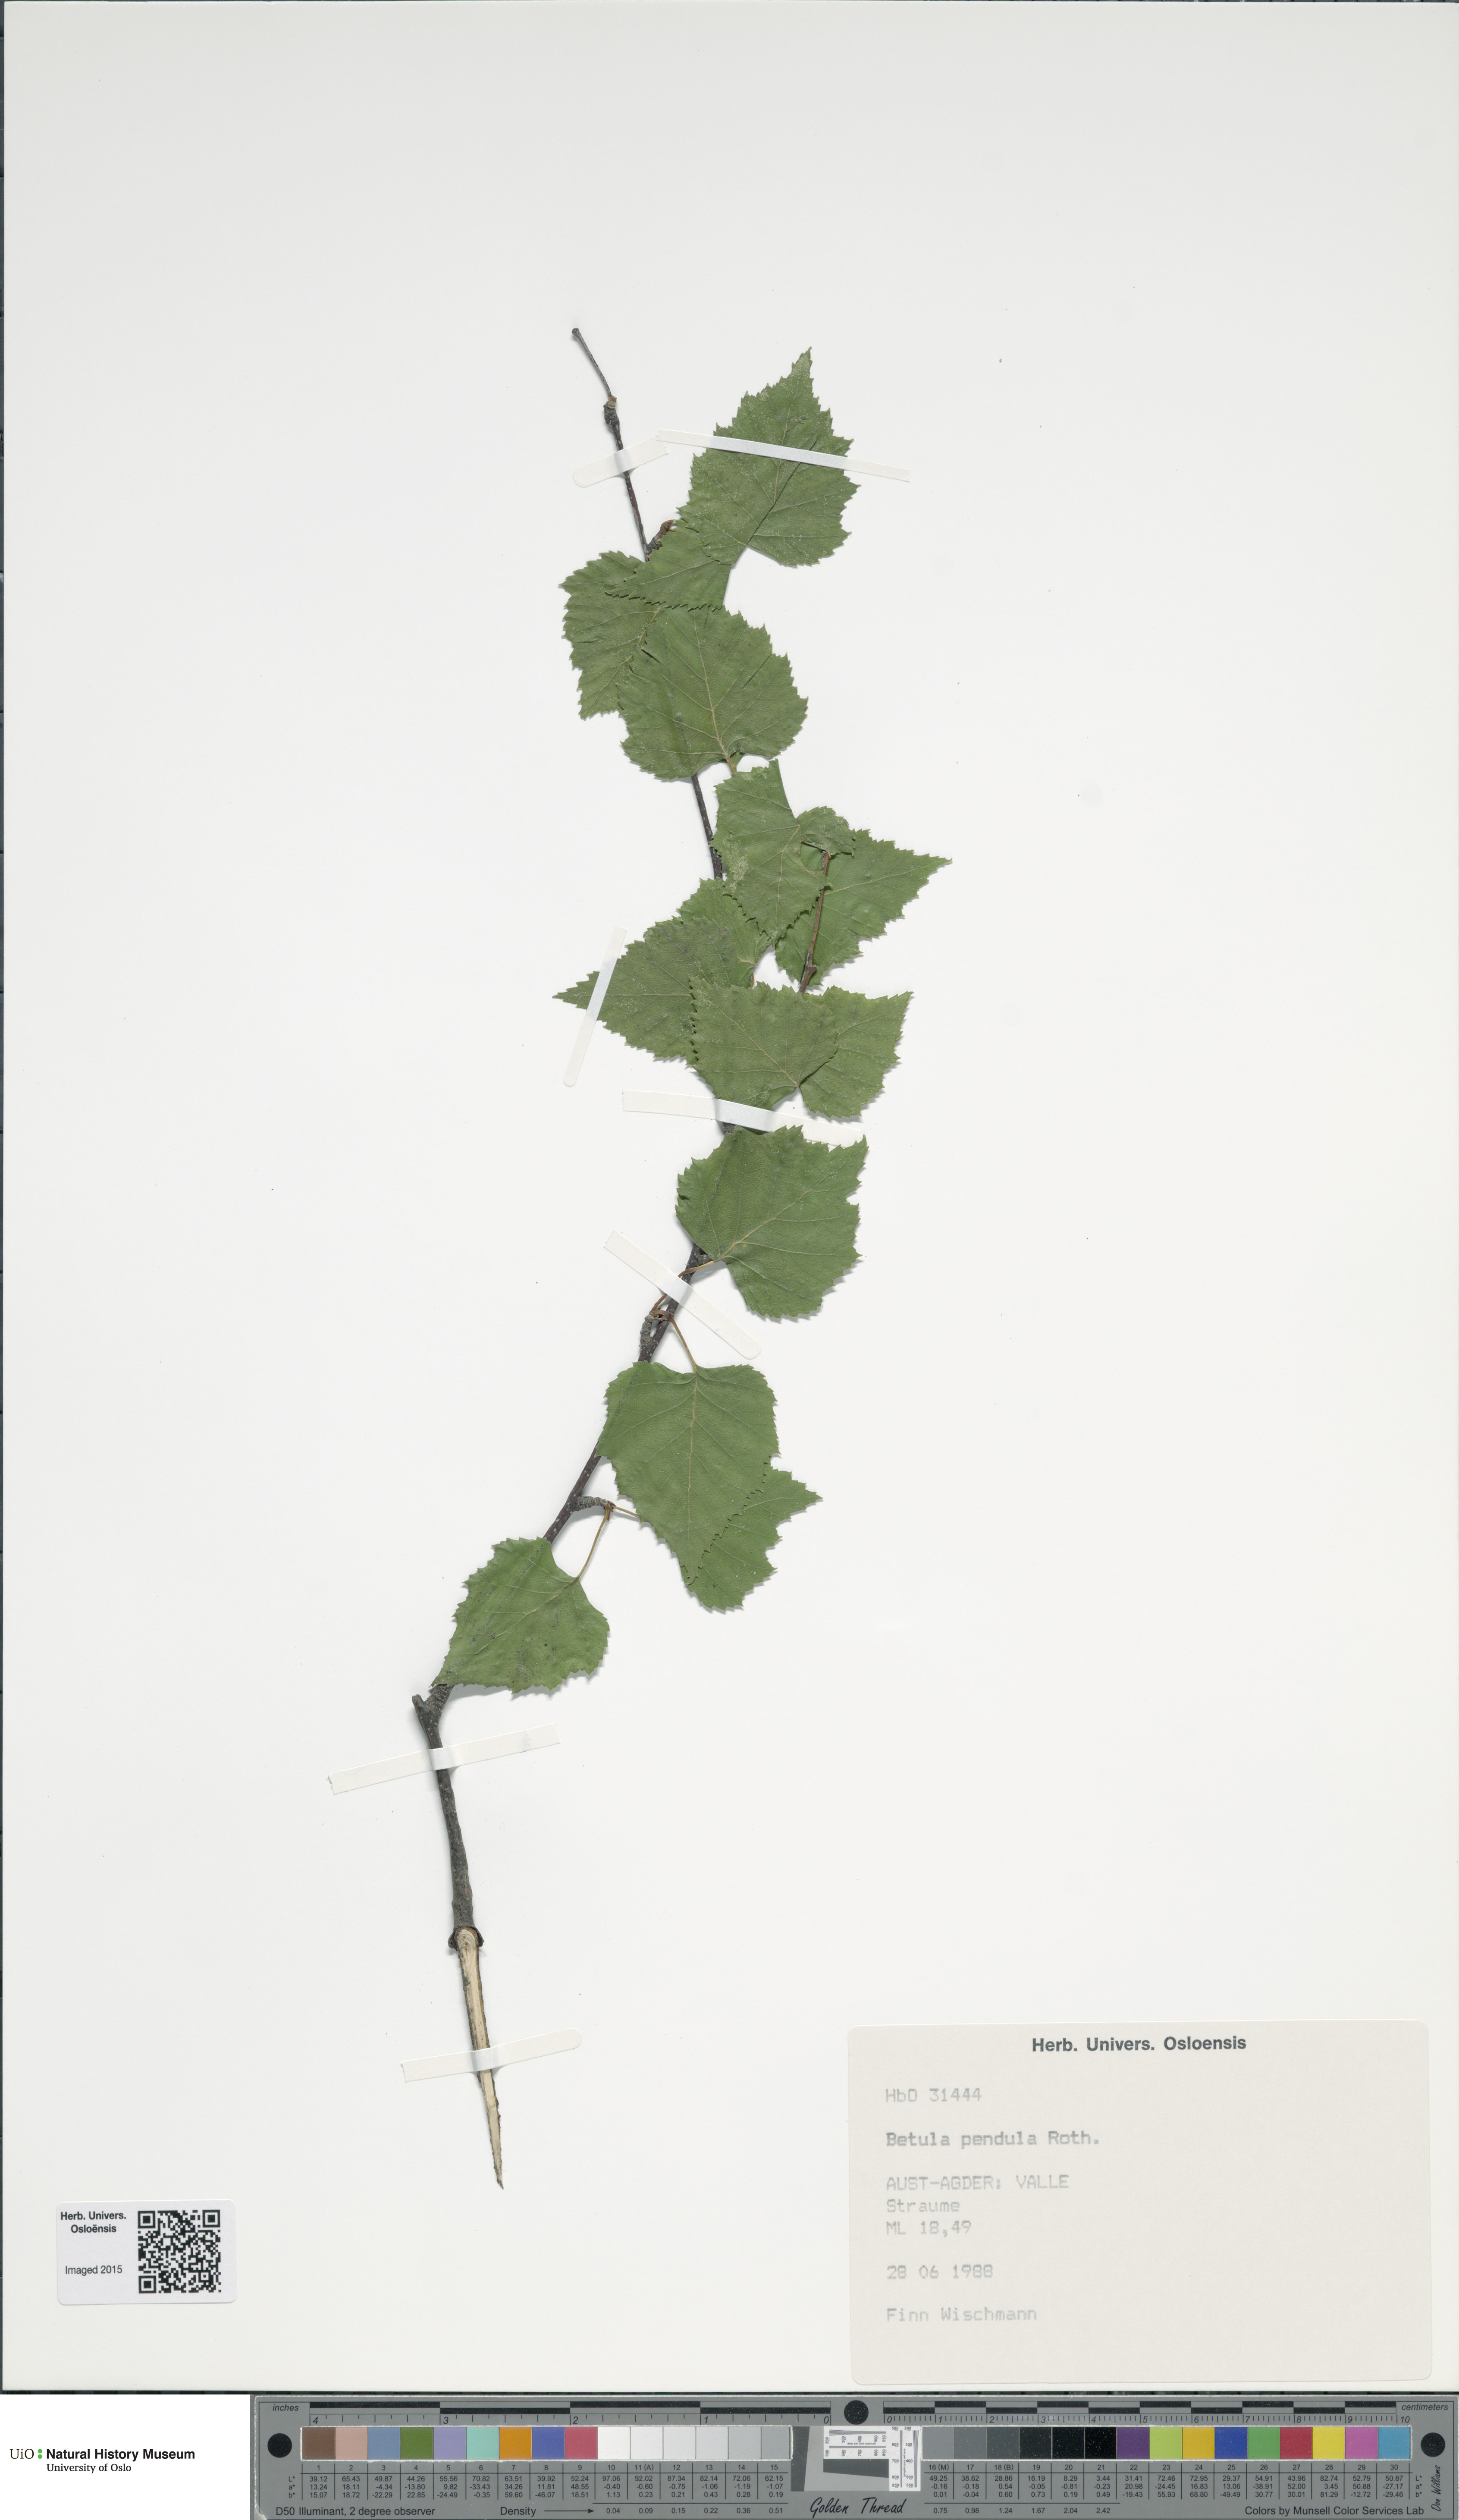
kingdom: Plantae
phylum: Tracheophyta
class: Magnoliopsida
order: Fagales
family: Betulaceae
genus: Betula
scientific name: Betula pendula
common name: Silver birch
